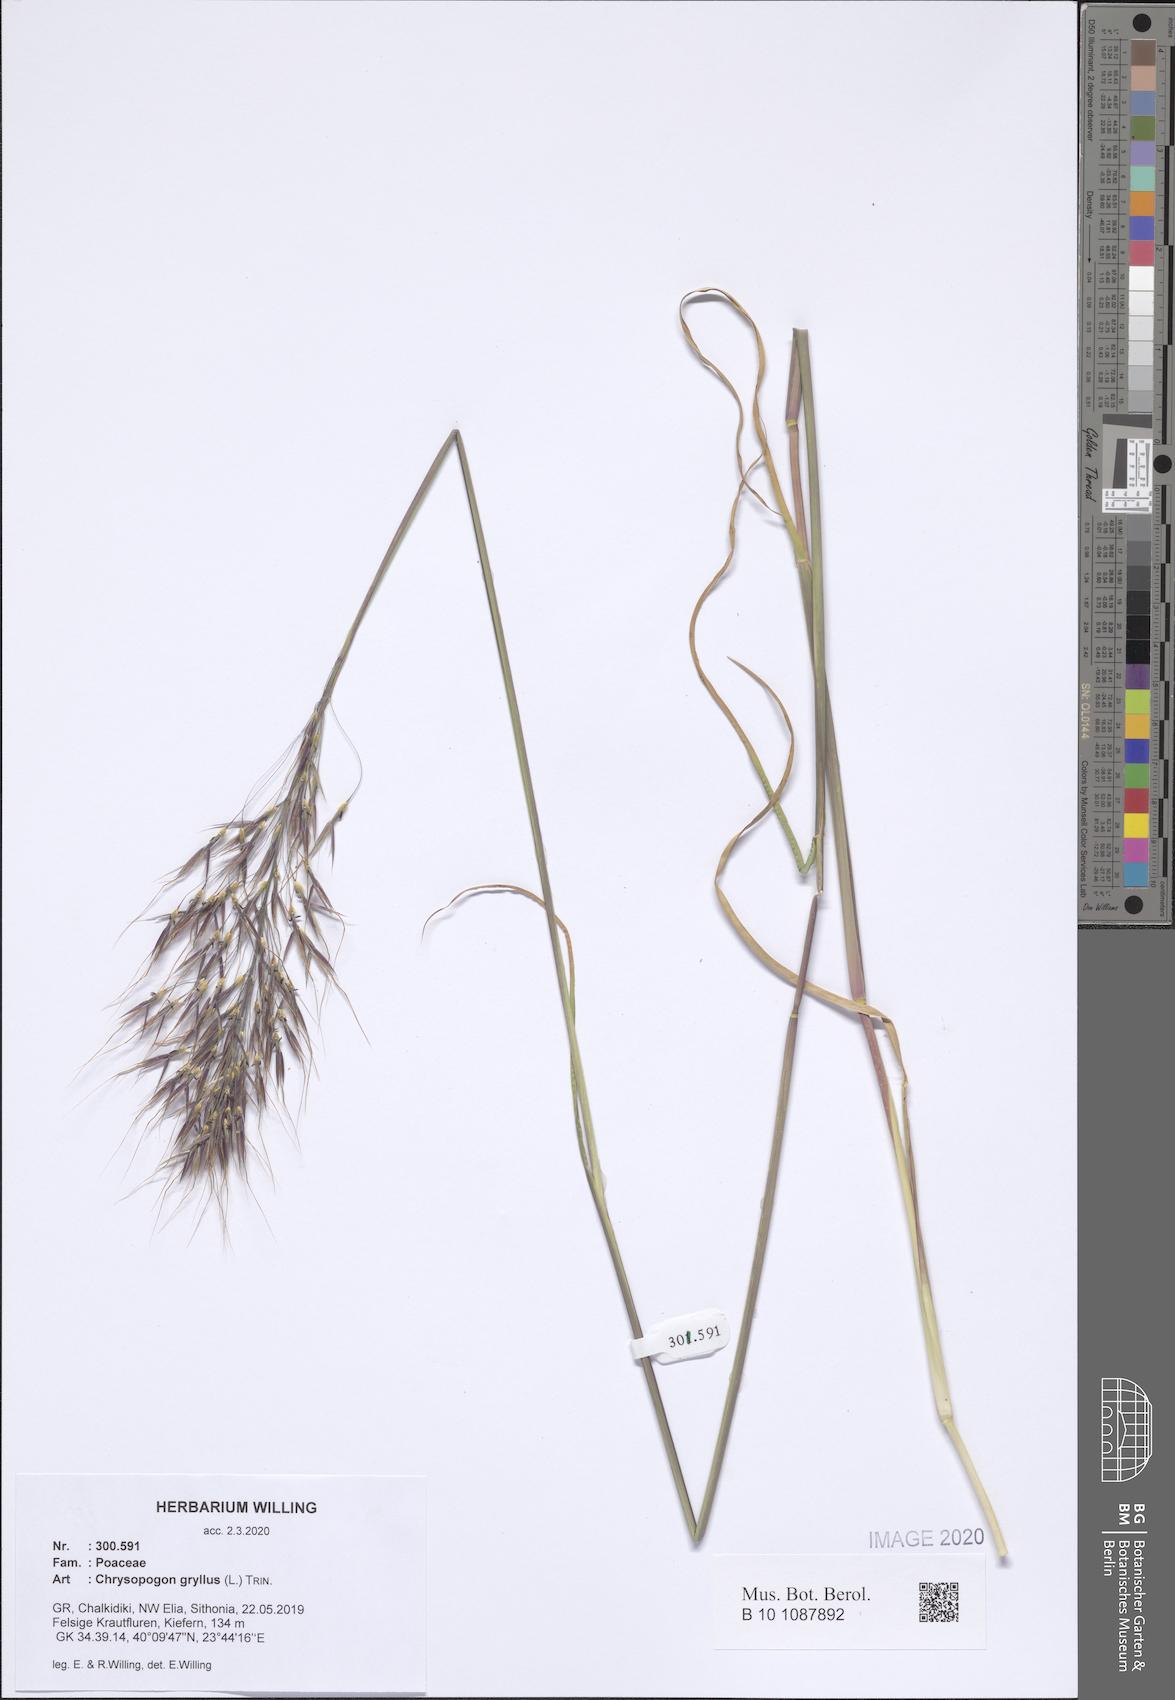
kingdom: Plantae
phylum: Tracheophyta
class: Liliopsida
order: Poales
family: Poaceae
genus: Chrysopogon
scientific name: Chrysopogon gryllus
